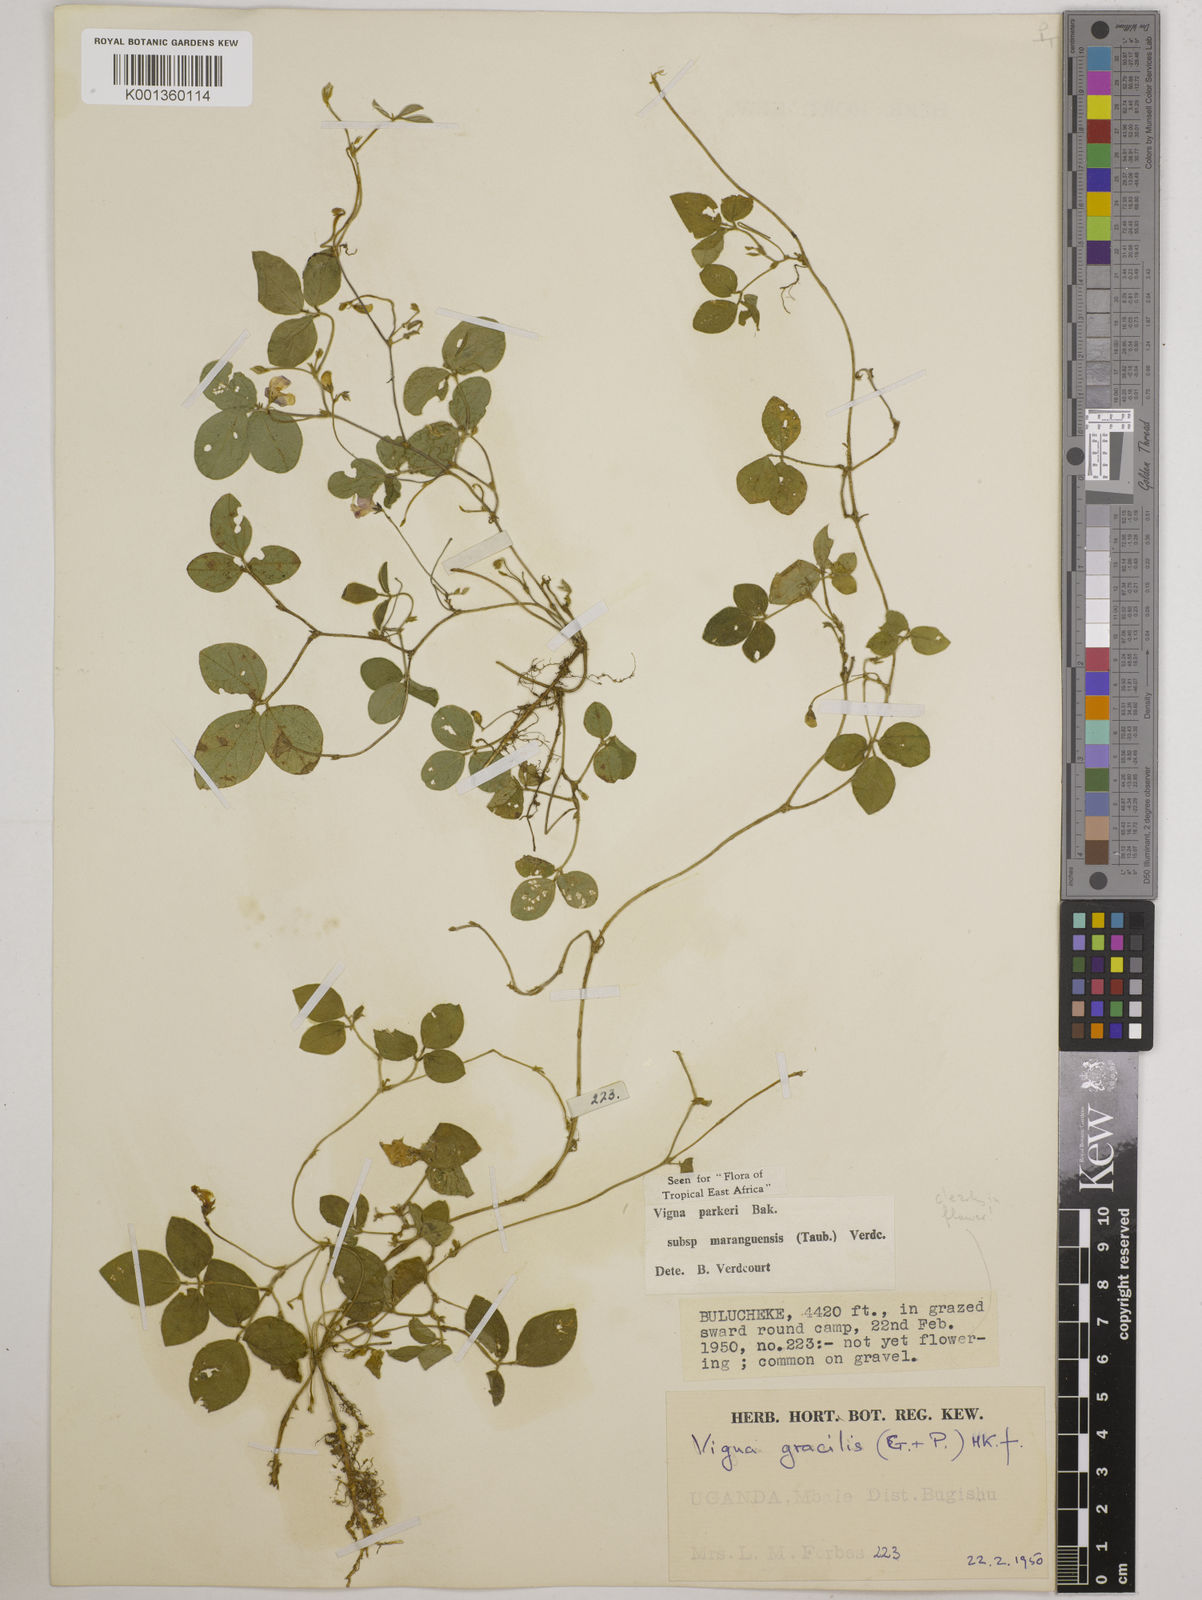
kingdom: Plantae
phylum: Tracheophyta
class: Magnoliopsida
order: Fabales
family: Fabaceae
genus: Vigna
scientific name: Vigna
